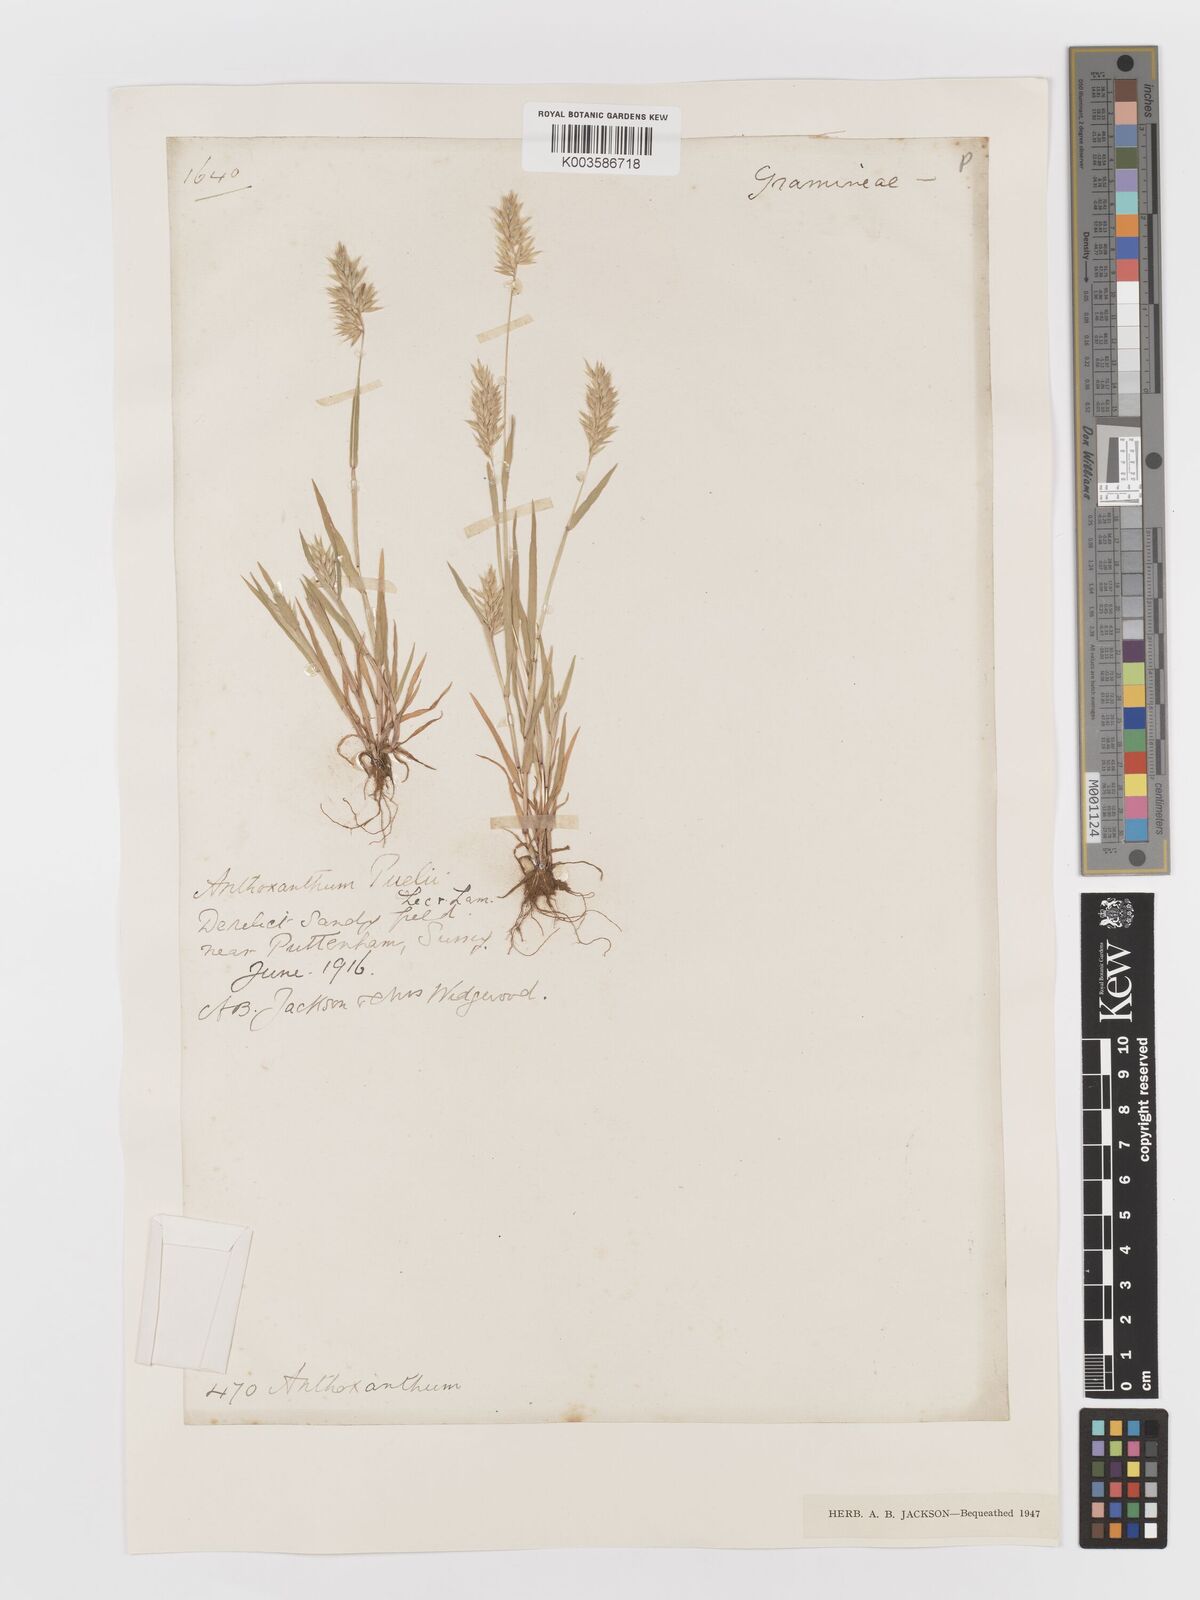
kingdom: Plantae
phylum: Tracheophyta
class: Liliopsida
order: Poales
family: Poaceae
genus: Anthoxanthum
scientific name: Anthoxanthum aristatum
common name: Annual vernal-grass
